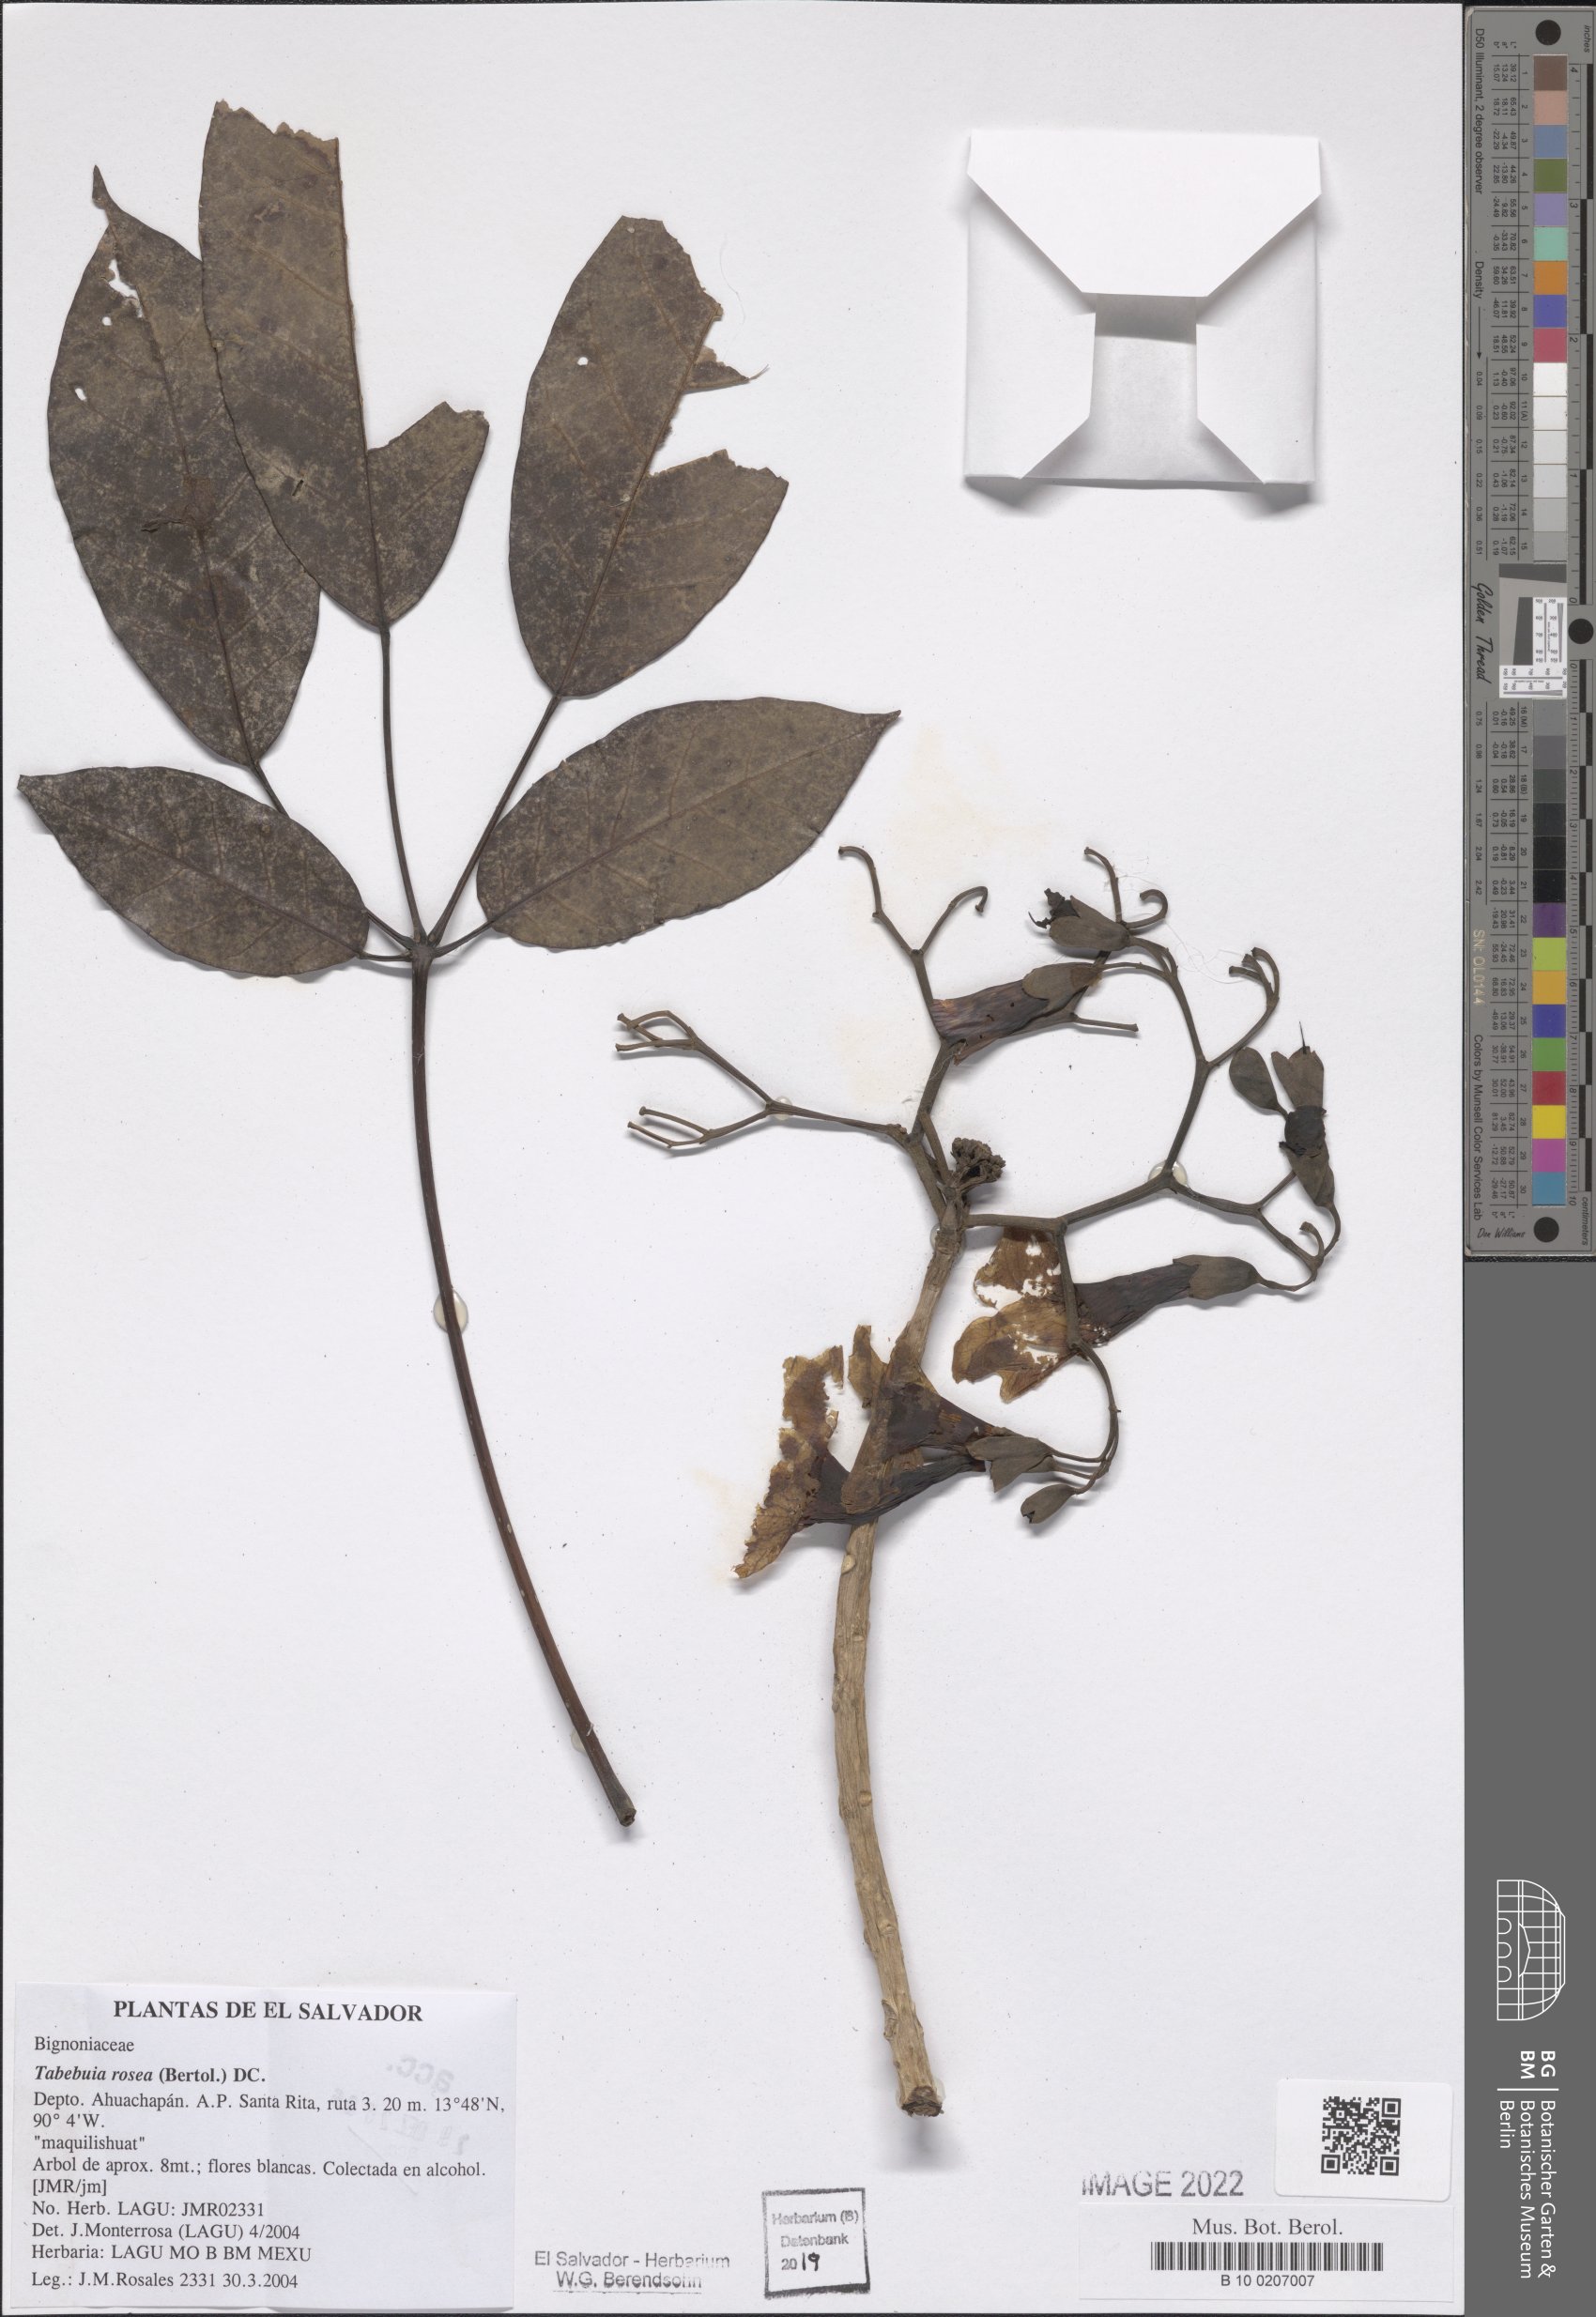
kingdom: Plantae
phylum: Tracheophyta
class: Magnoliopsida
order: Lamiales
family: Bignoniaceae
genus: Tabebuia
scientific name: Tabebuia rosea
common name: Pink poui
